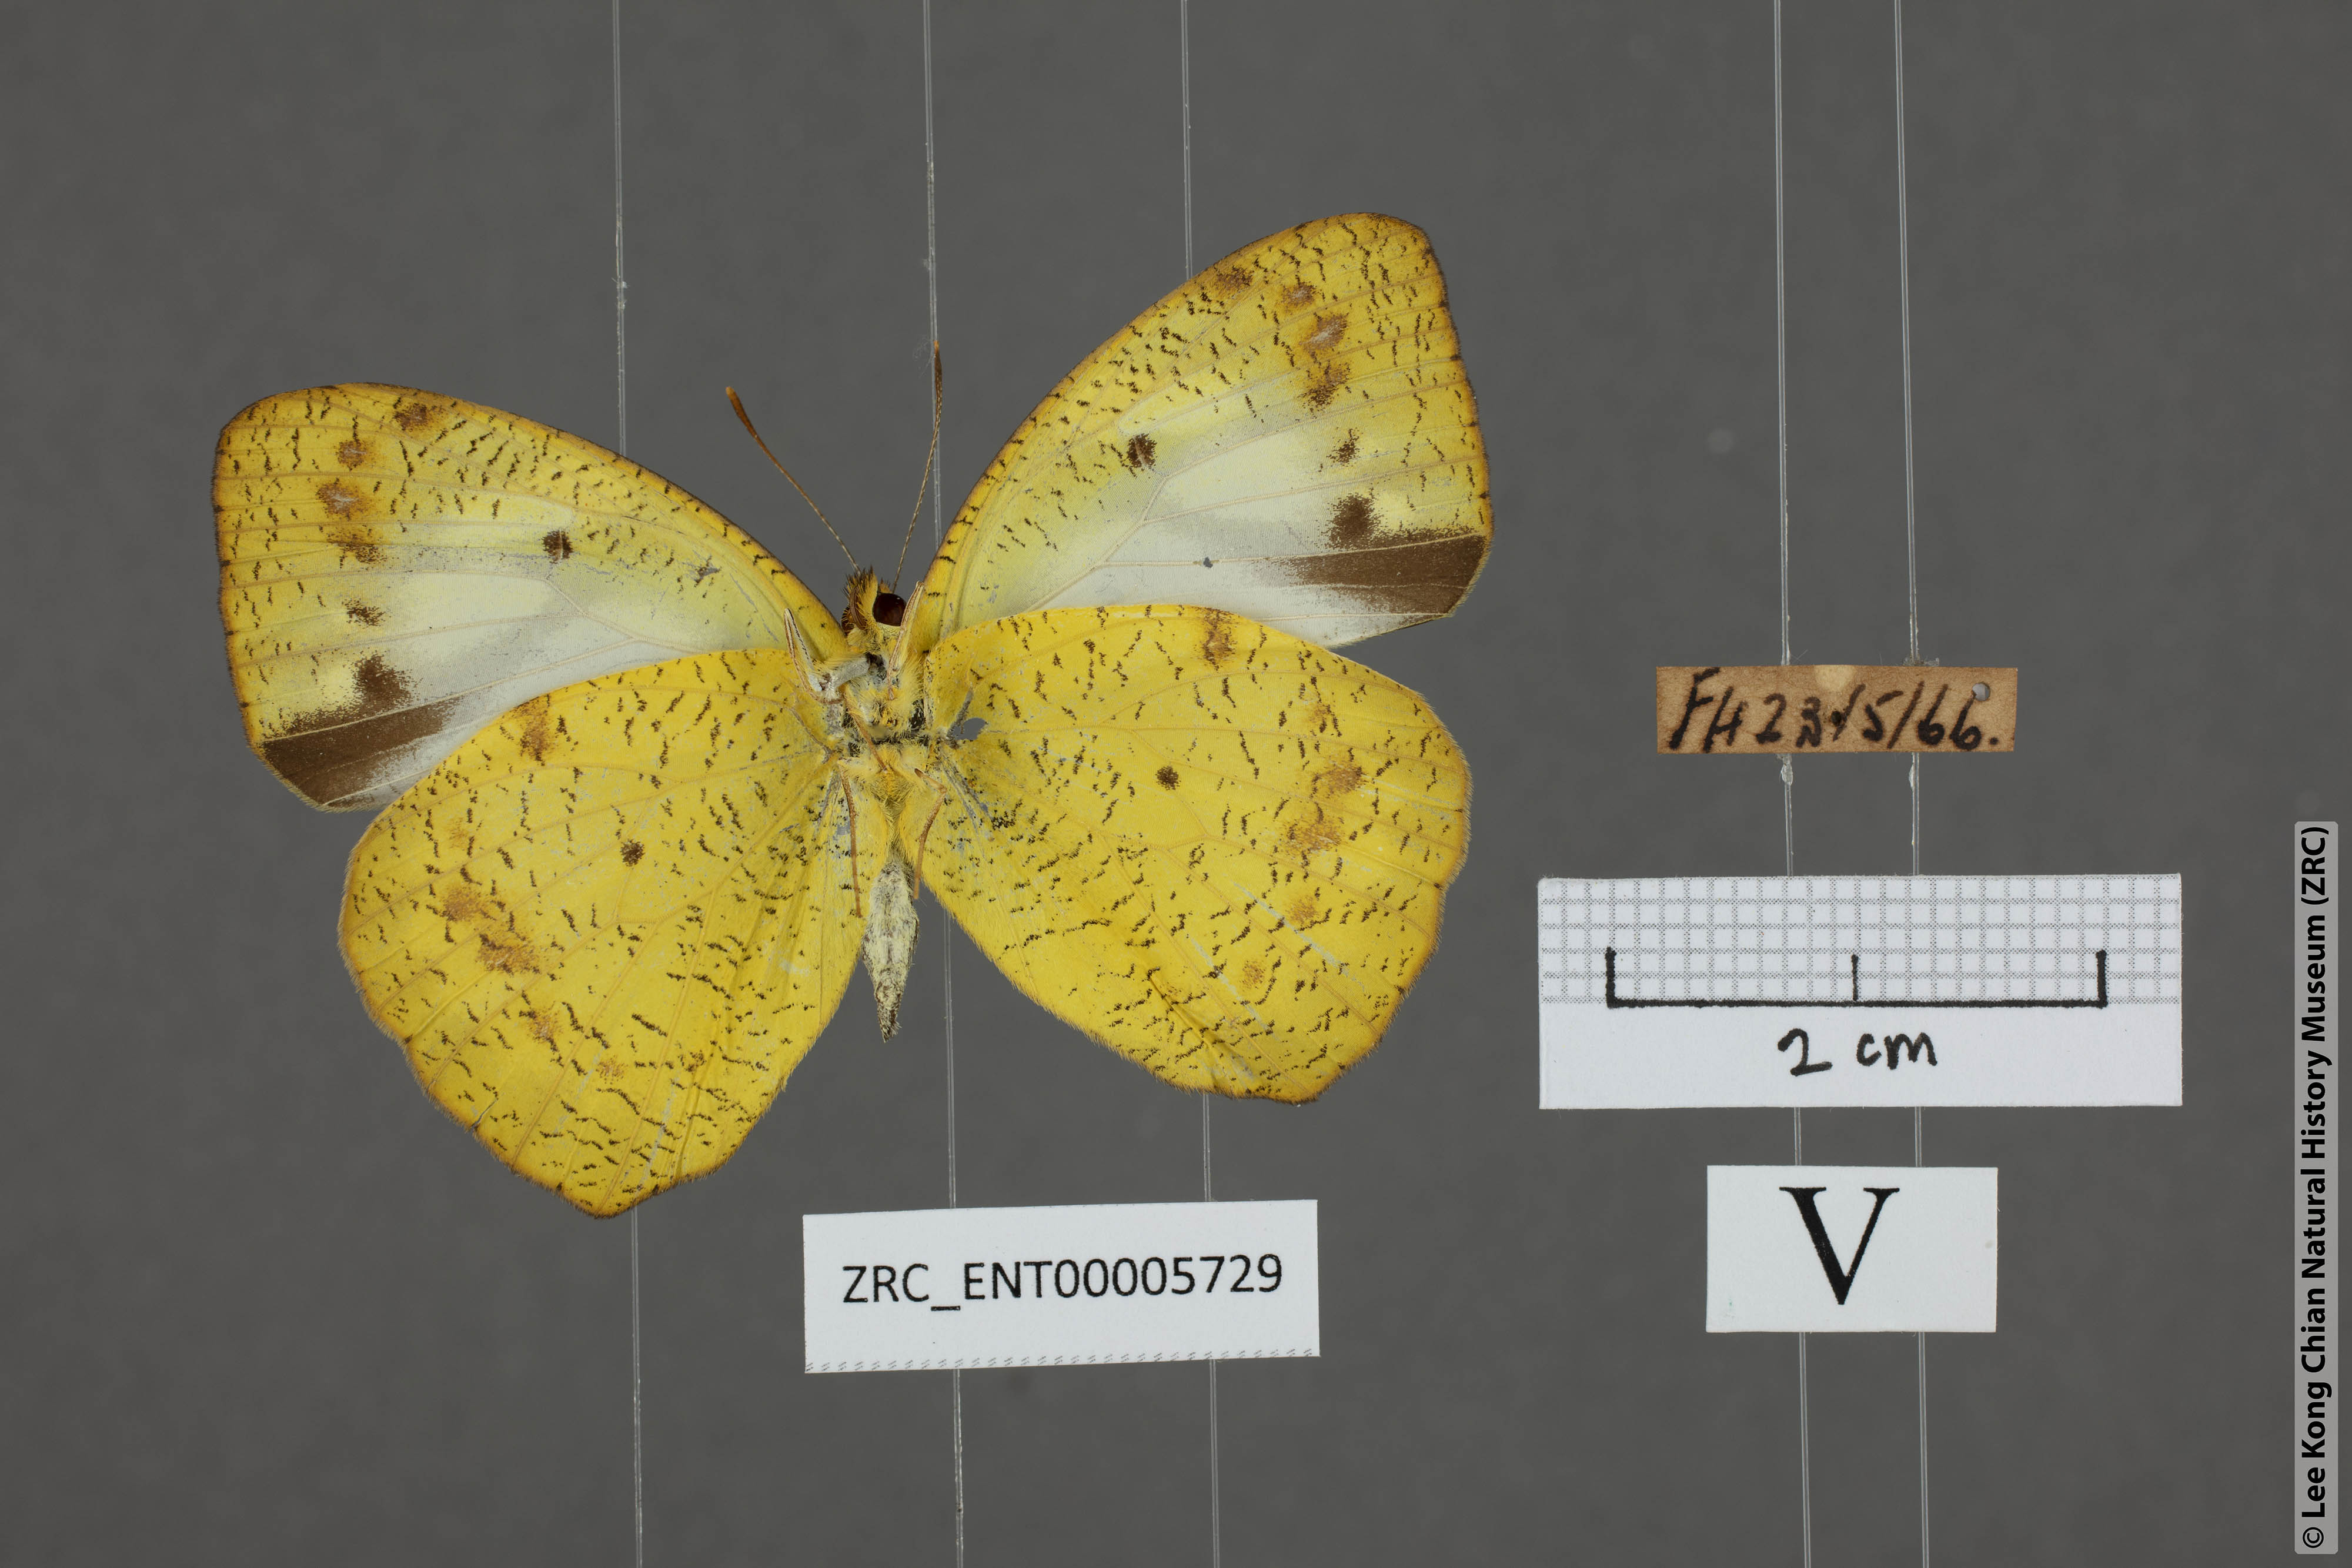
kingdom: Animalia
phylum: Arthropoda
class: Insecta
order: Lepidoptera
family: Pieridae
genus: Ixias
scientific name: Ixias pyrene
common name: Yellow orange tip
